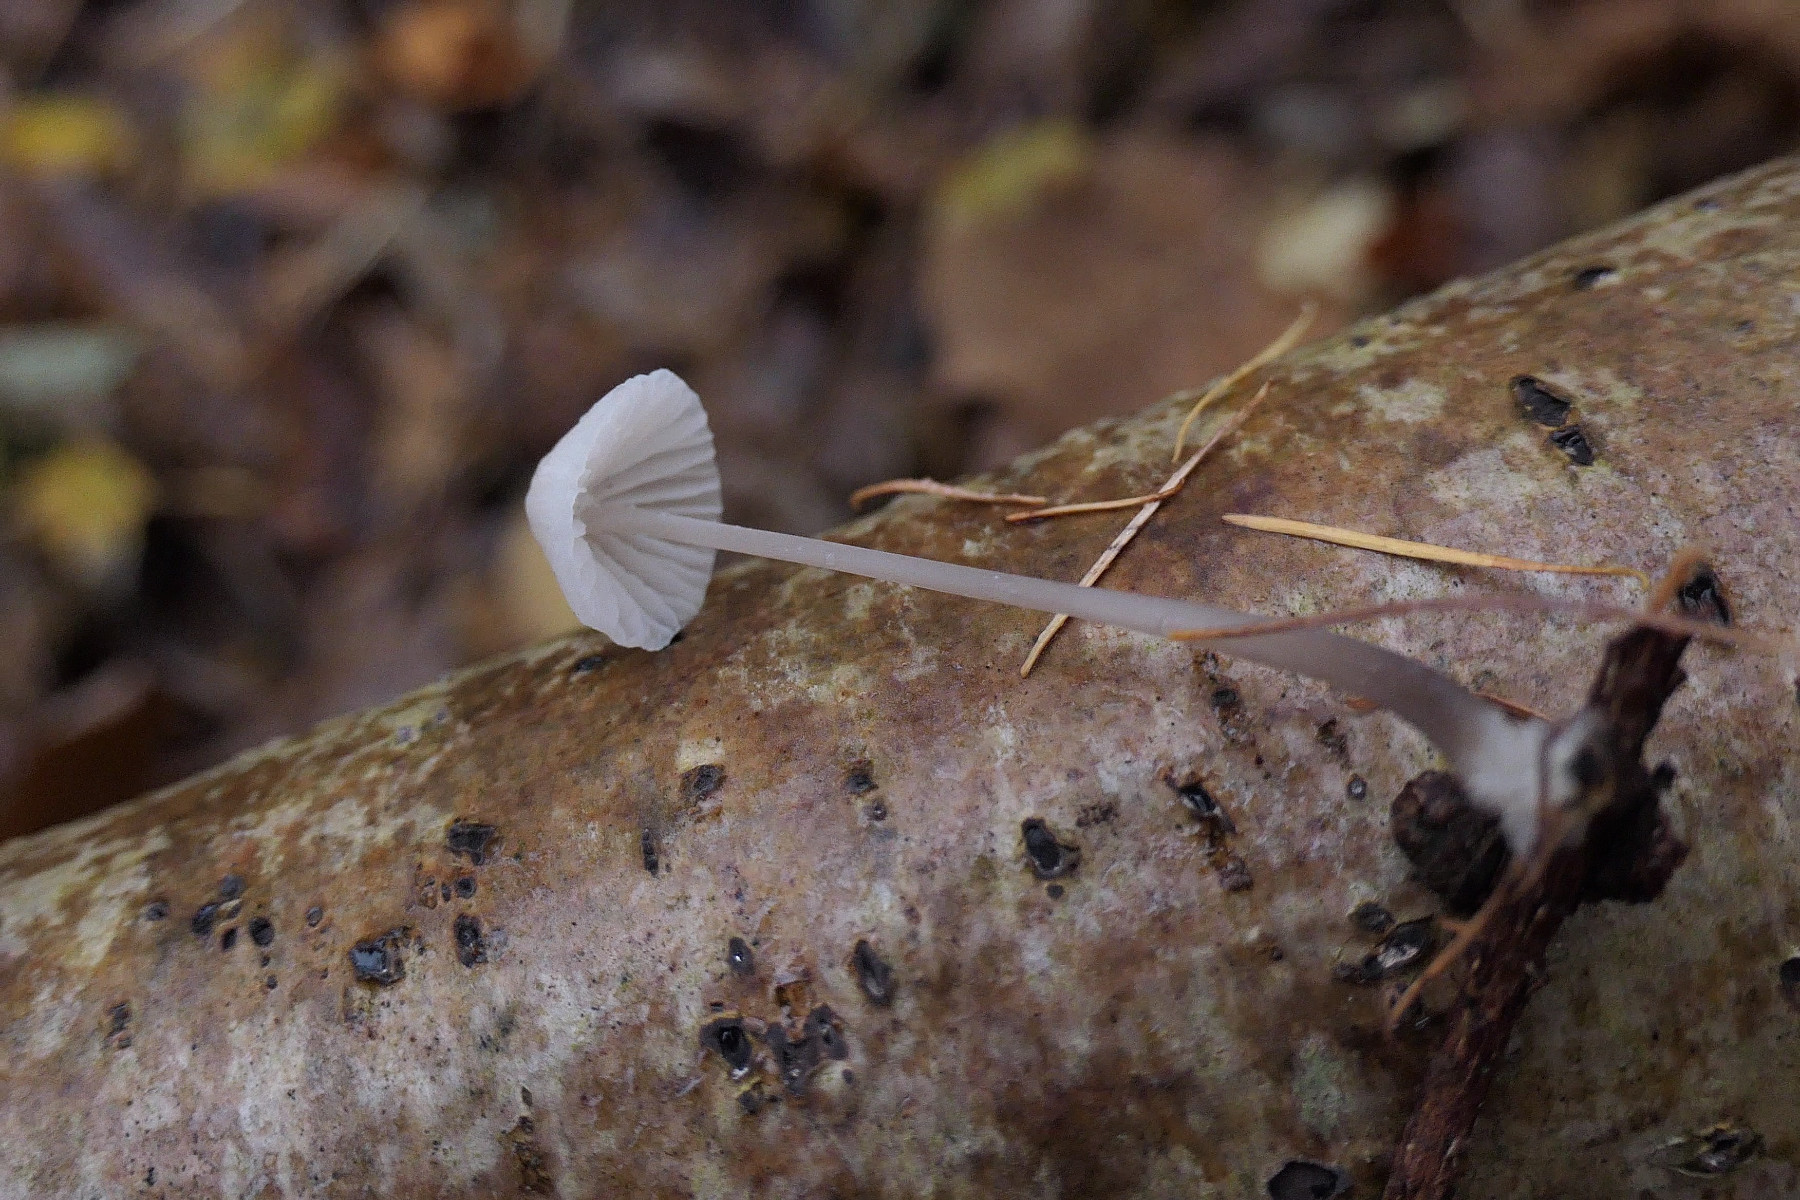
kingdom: Fungi
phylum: Basidiomycota
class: Agaricomycetes
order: Agaricales
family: Mycenaceae
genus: Mycena
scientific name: Mycena galopus
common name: hvidmælket huesvamp
